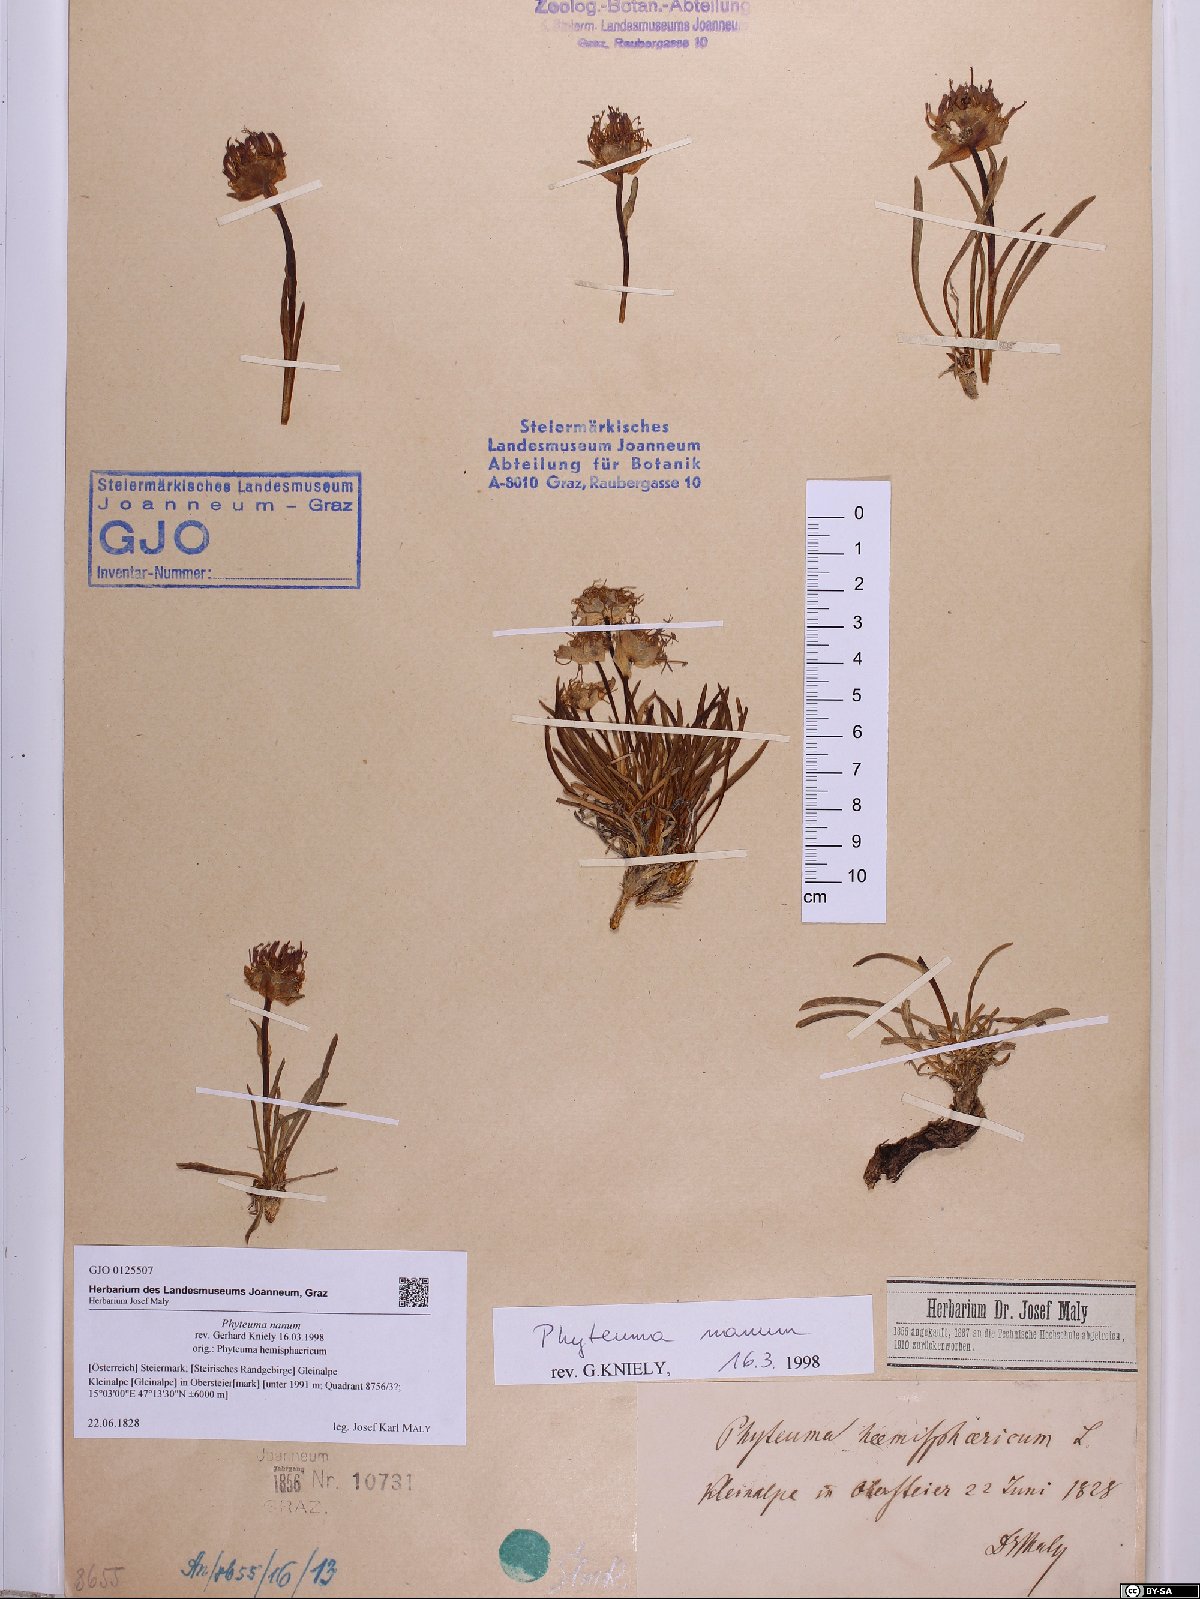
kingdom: Plantae
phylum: Tracheophyta
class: Magnoliopsida
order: Asterales
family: Campanulaceae
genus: Phyteuma
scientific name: Phyteuma globulariifolium
